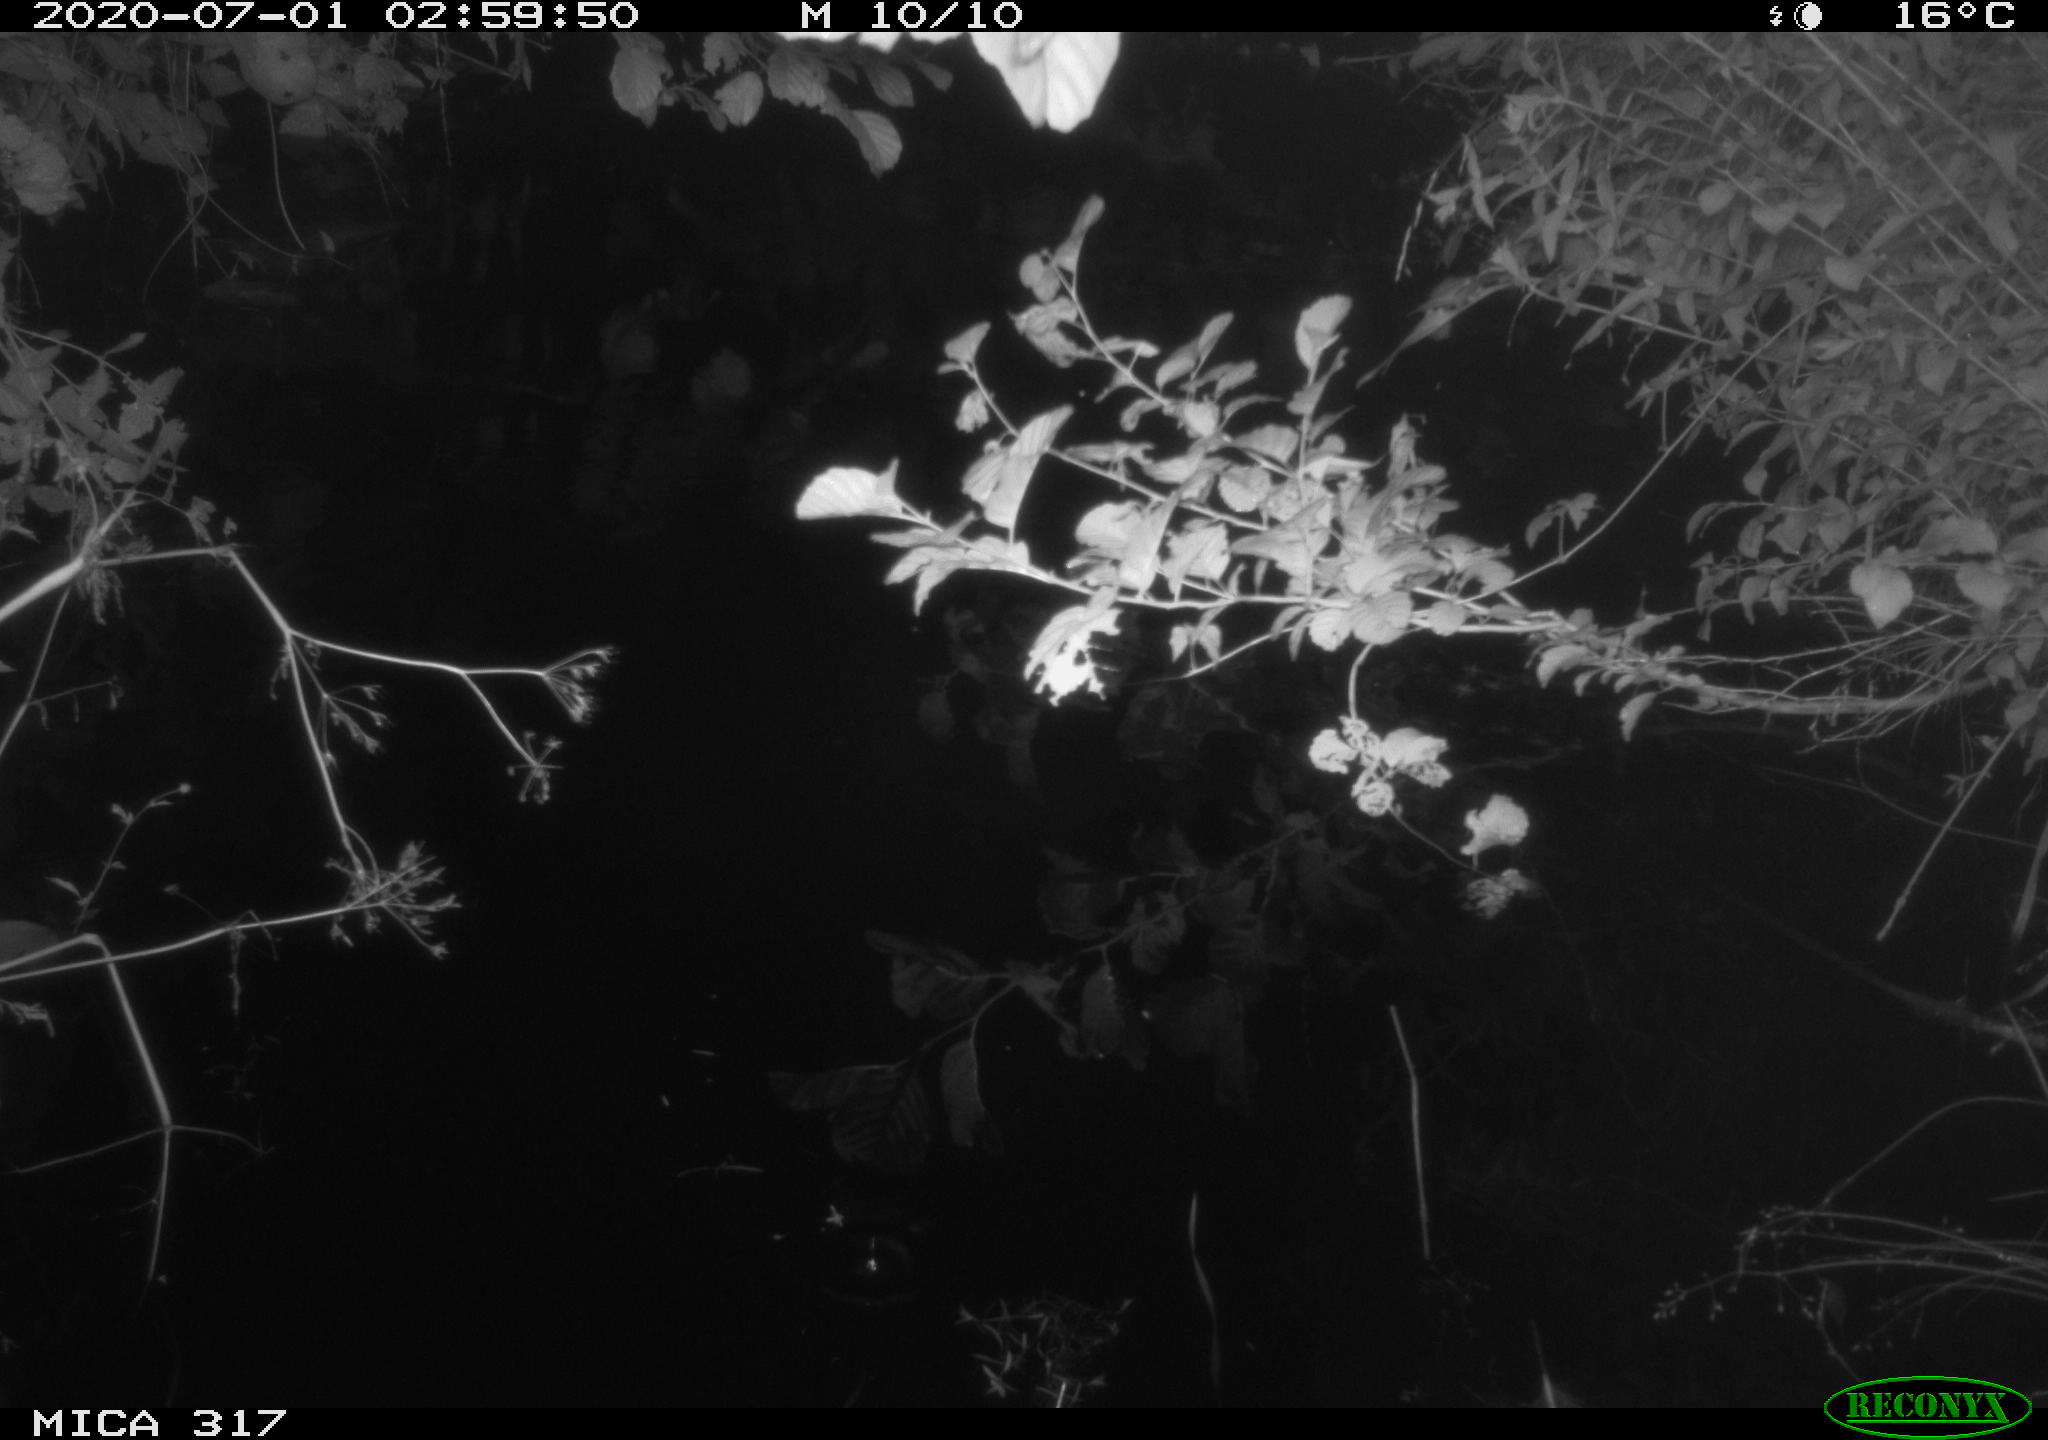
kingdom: Animalia
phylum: Chordata
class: Aves
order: Anseriformes
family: Anatidae
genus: Anas
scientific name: Anas platyrhynchos
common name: Mallard
